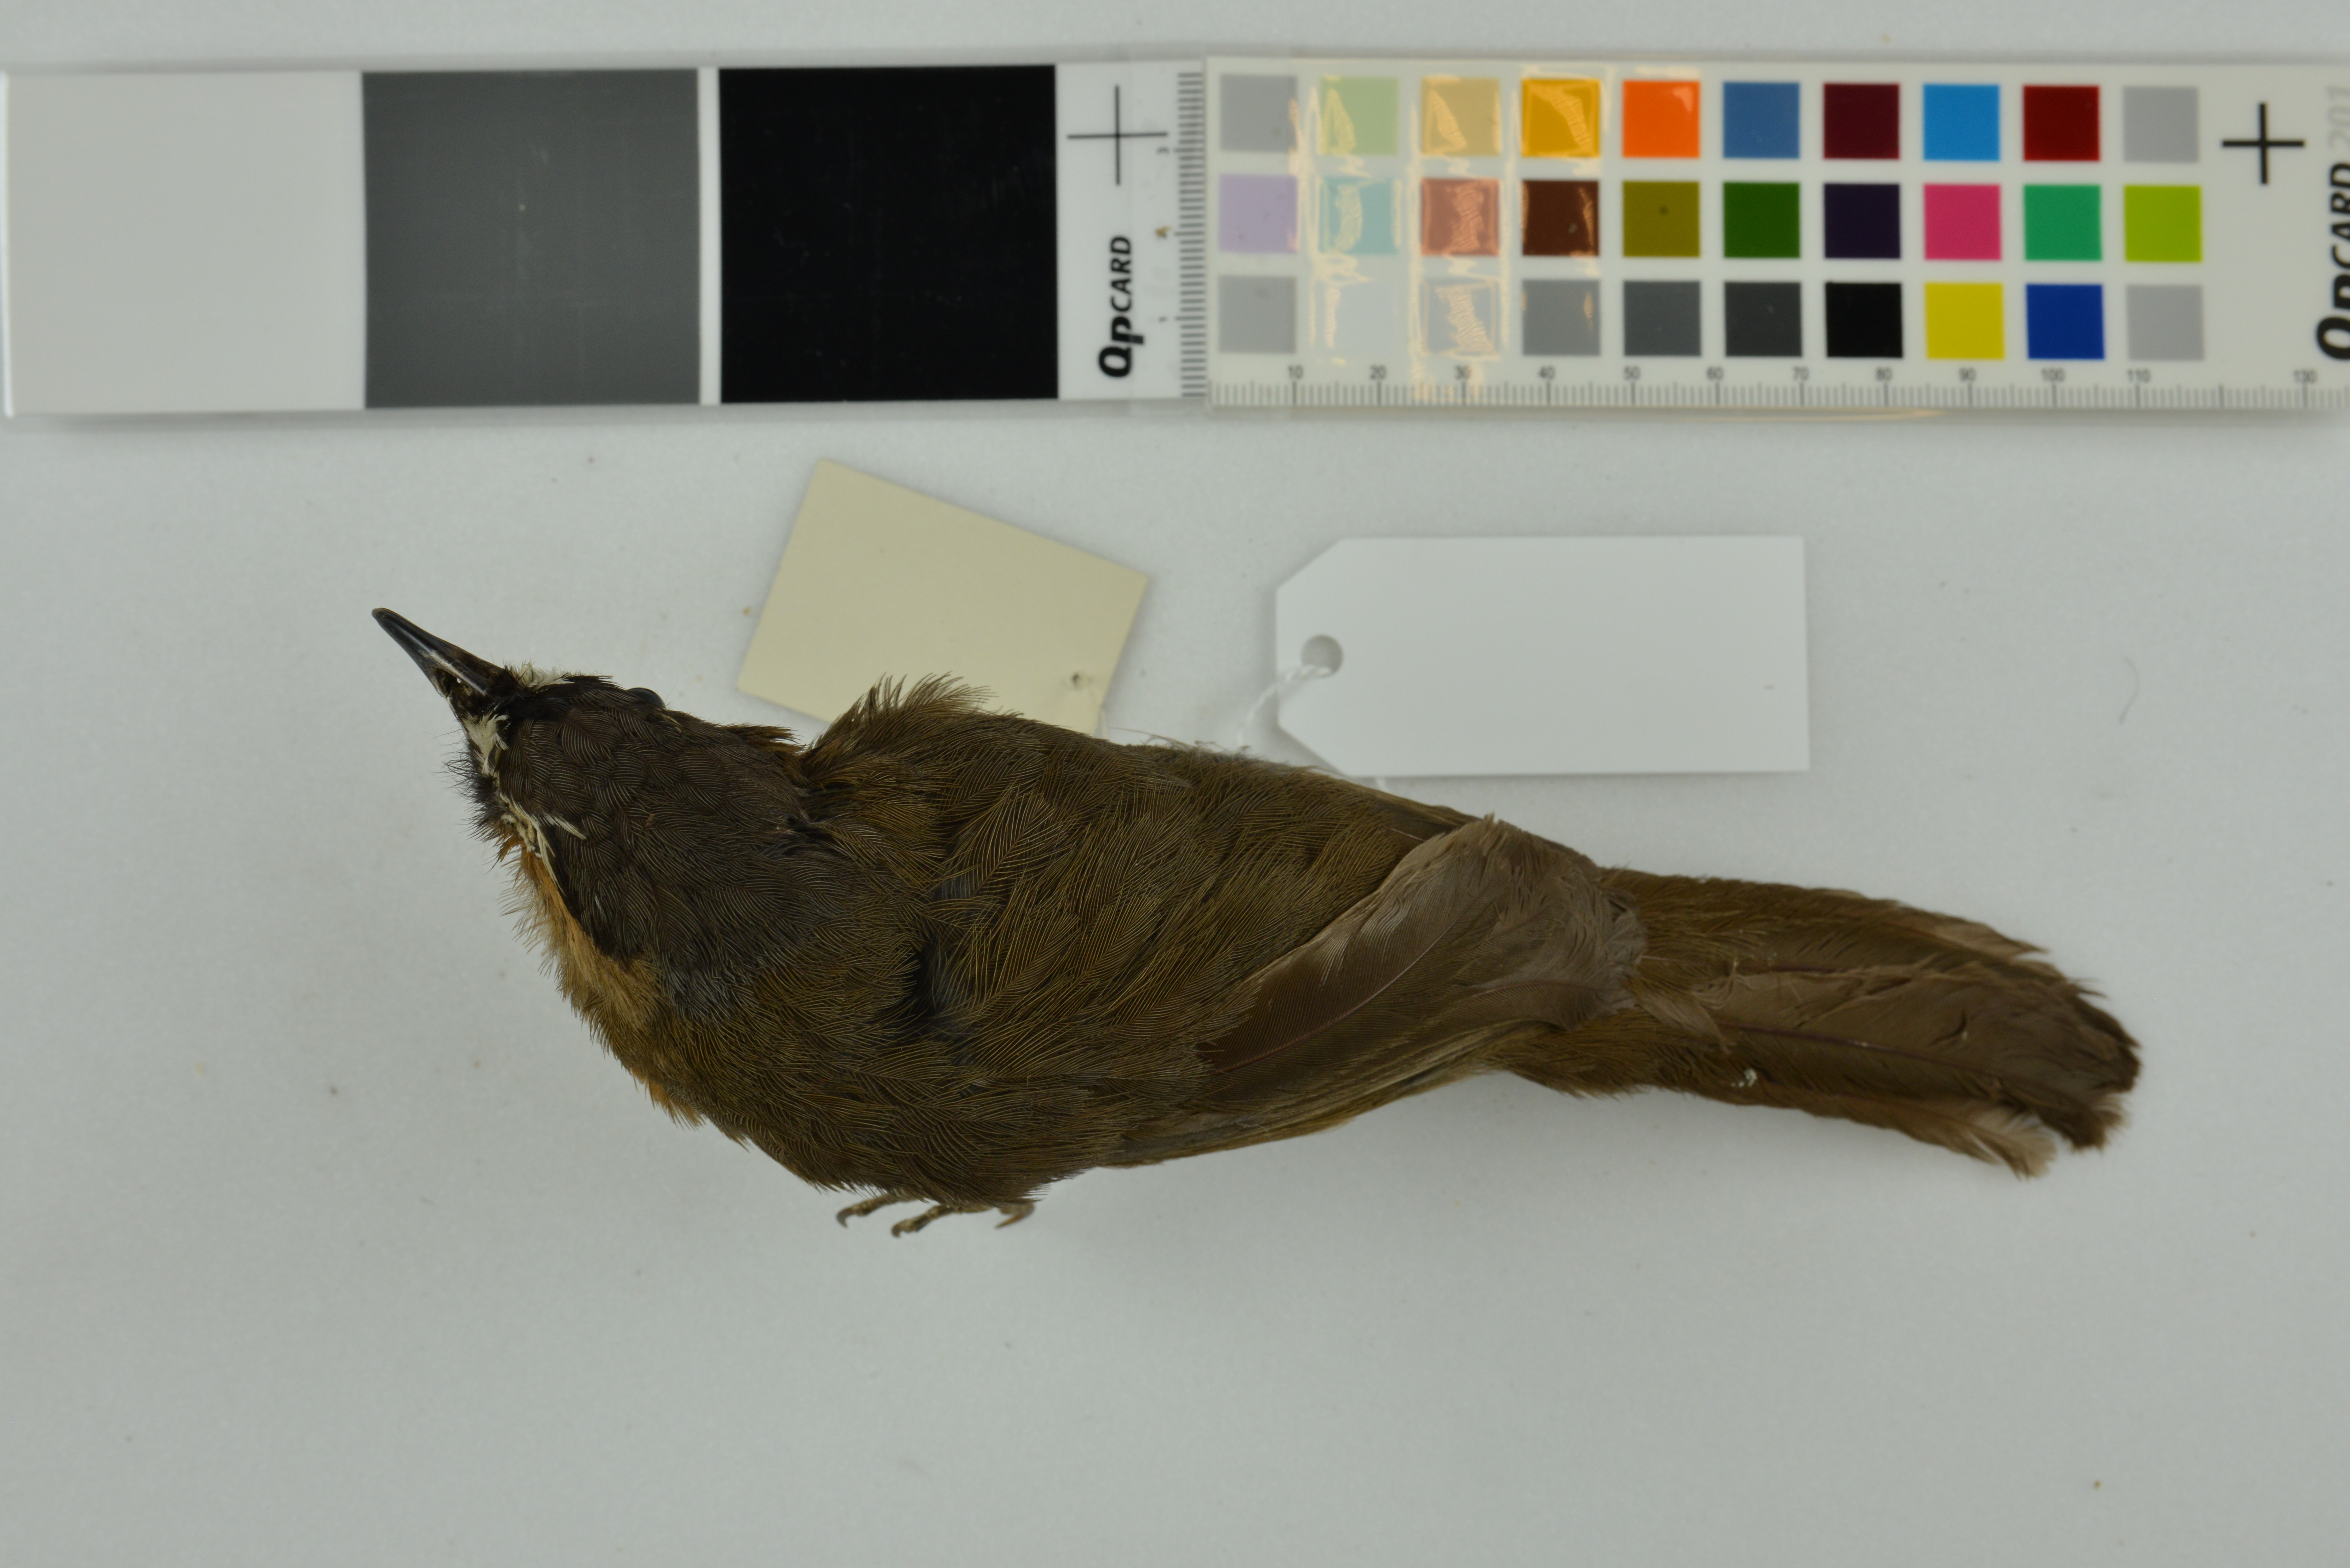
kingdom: Animalia
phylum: Chordata
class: Aves
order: Passeriformes
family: Leiothrichidae
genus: Trochalopteron
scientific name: Trochalopteron cachinnans
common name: Black-chinned laughingthrush
